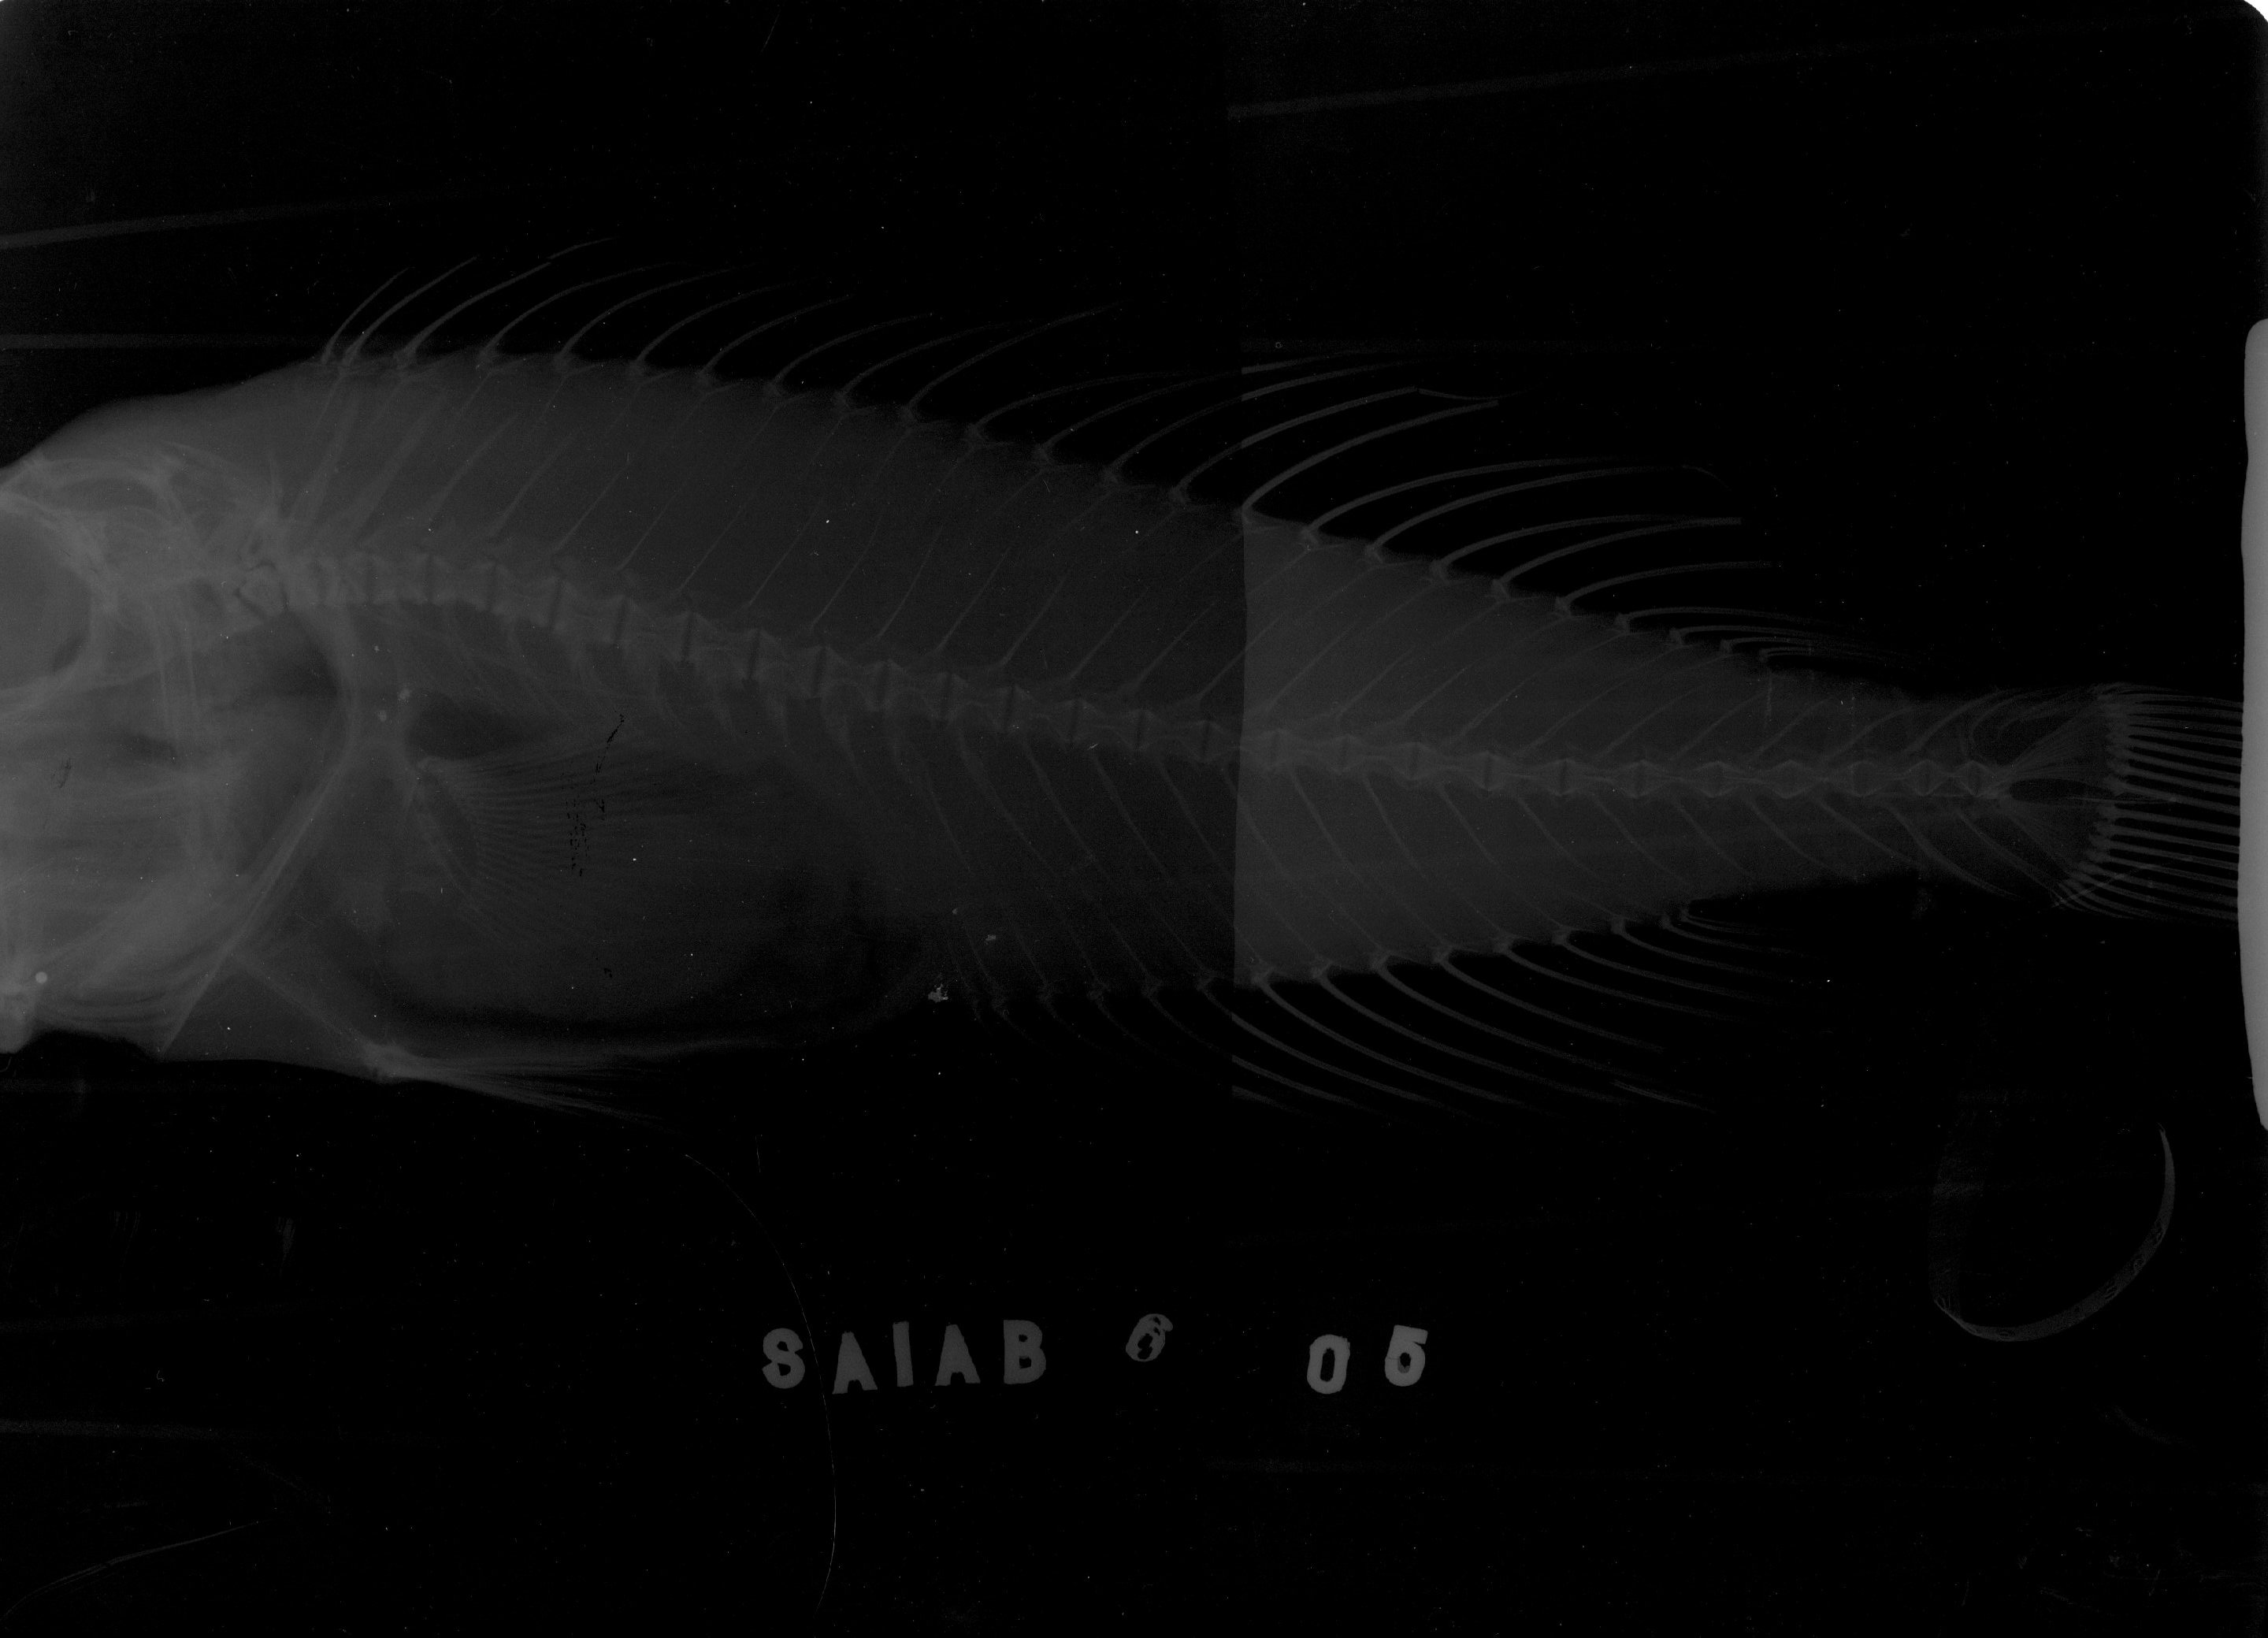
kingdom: Animalia
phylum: Chordata
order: Perciformes
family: Cepolidae
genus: Sphenanthias
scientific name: Sphenanthias simoterus
